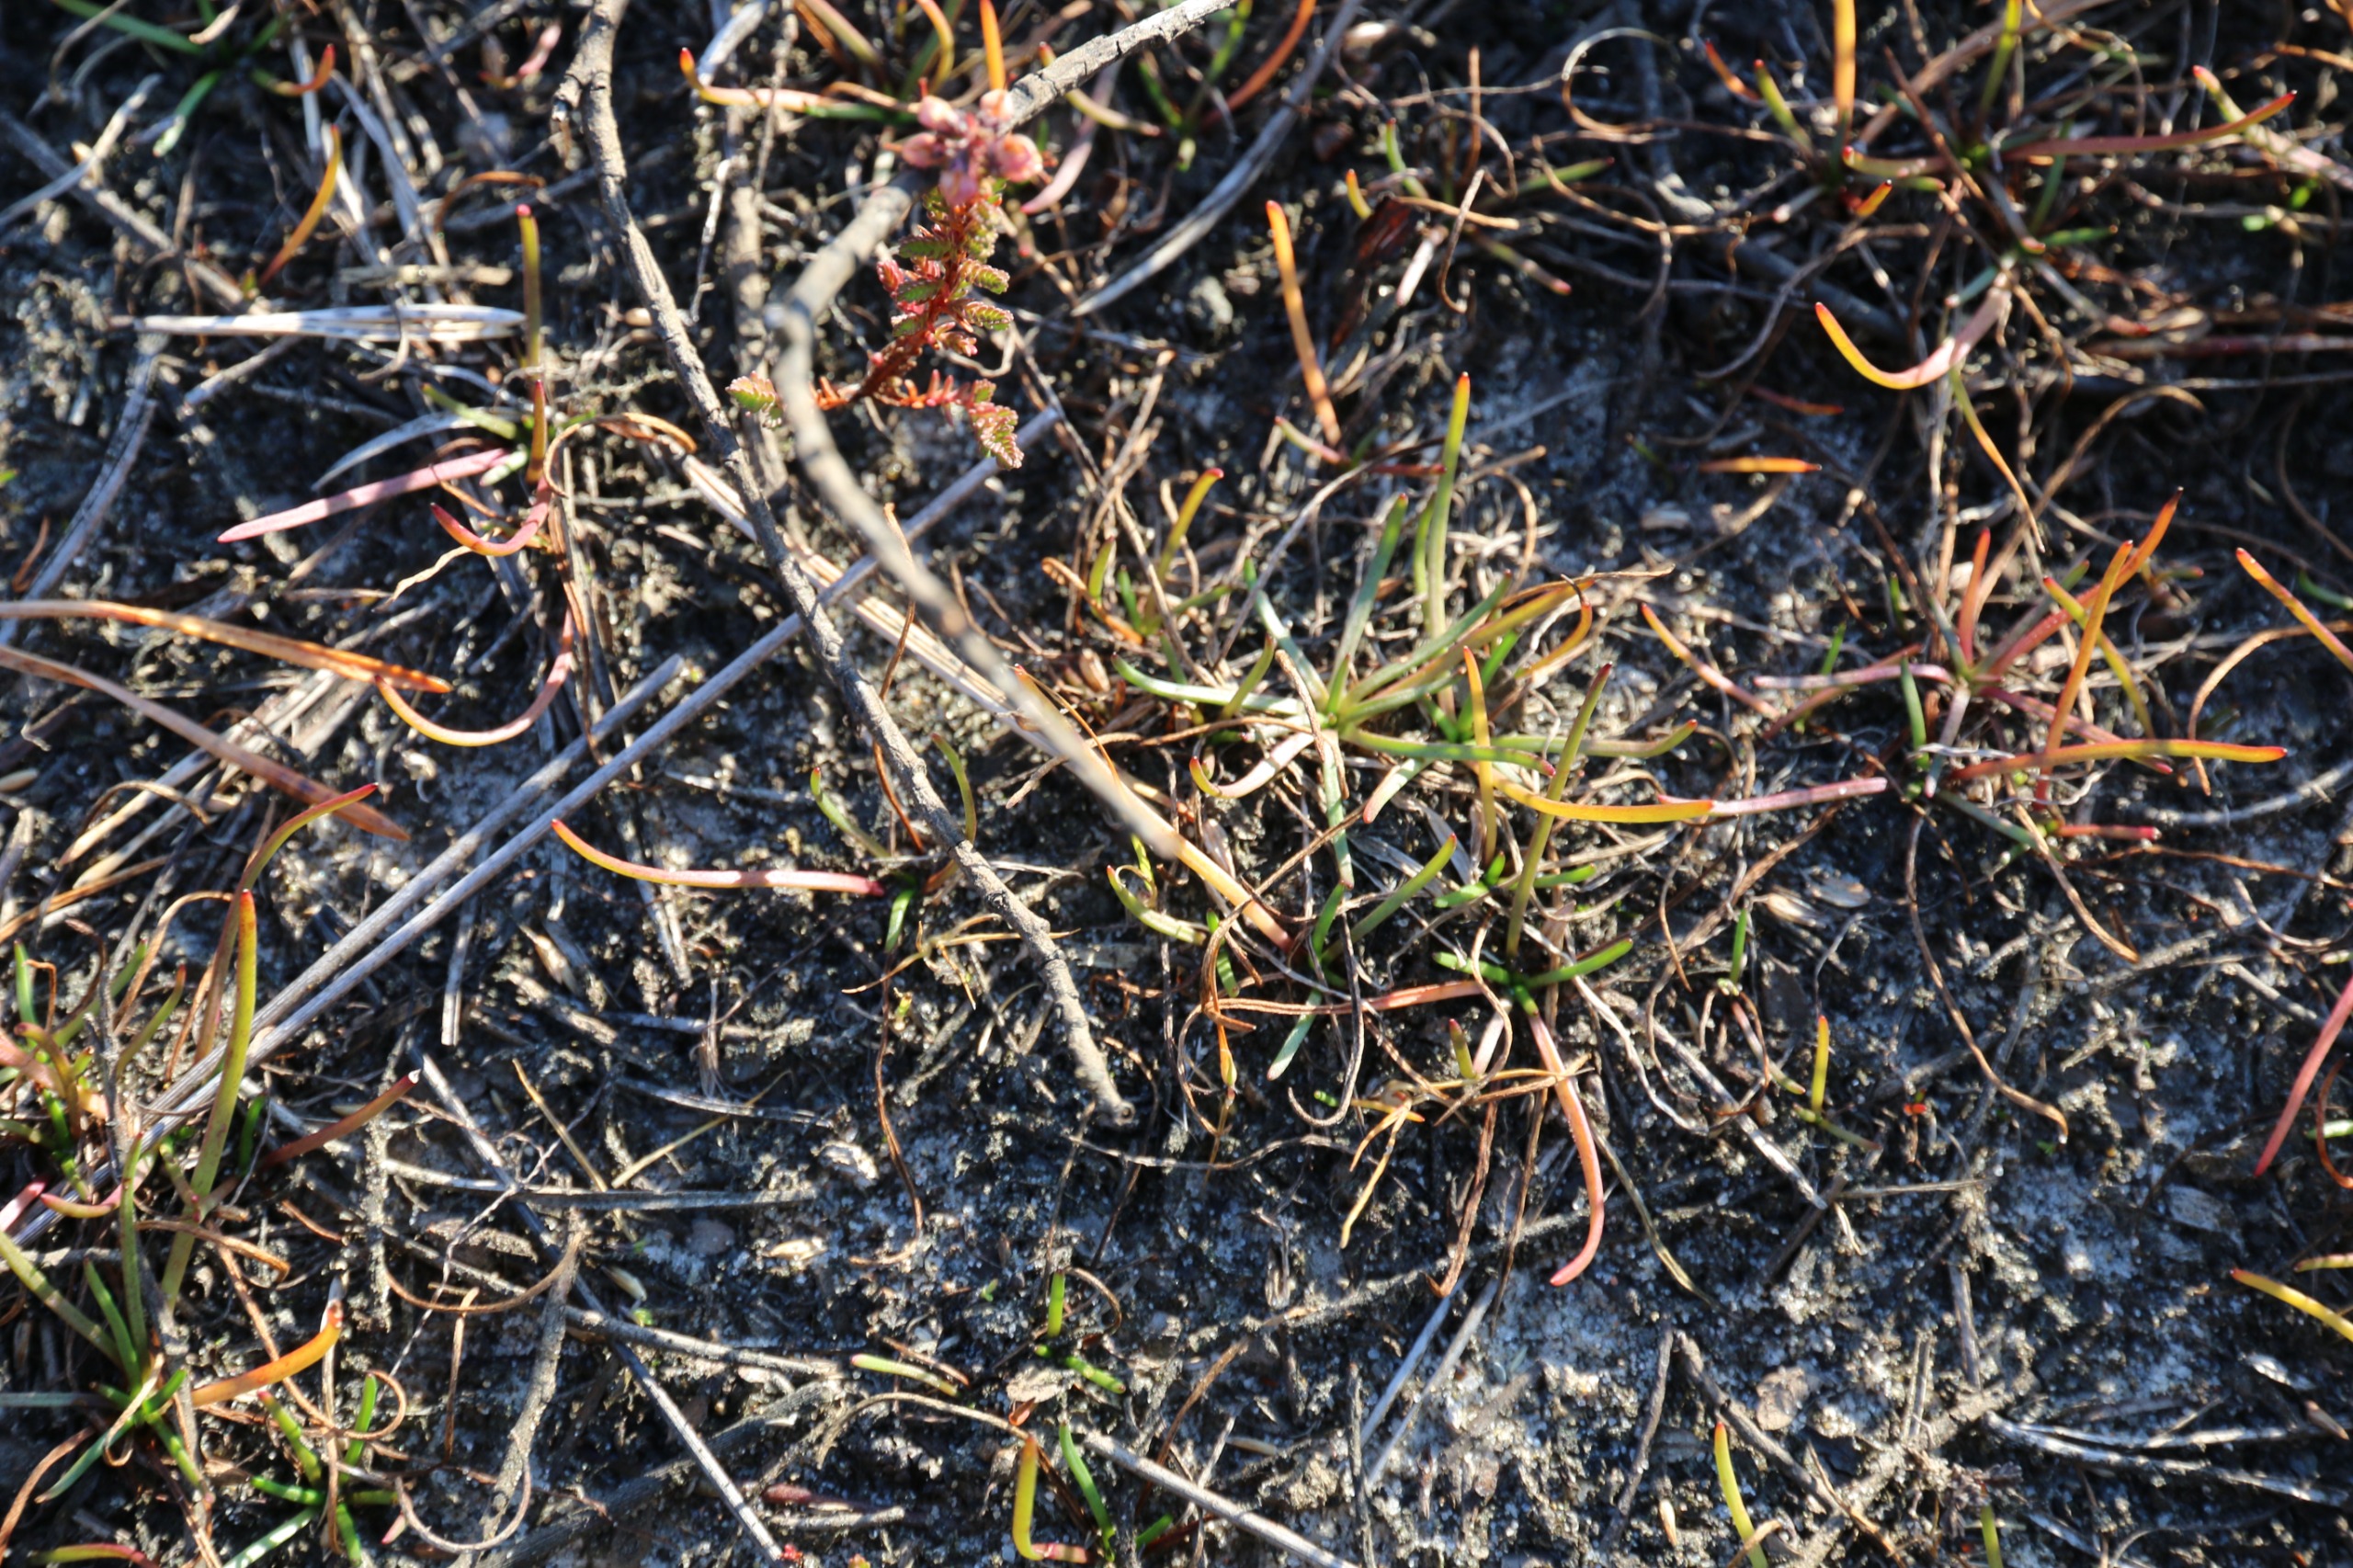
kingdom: Plantae
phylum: Tracheophyta
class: Magnoliopsida
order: Lamiales
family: Plantaginaceae
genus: Littorella
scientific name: Littorella uniflora
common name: Strandbo
